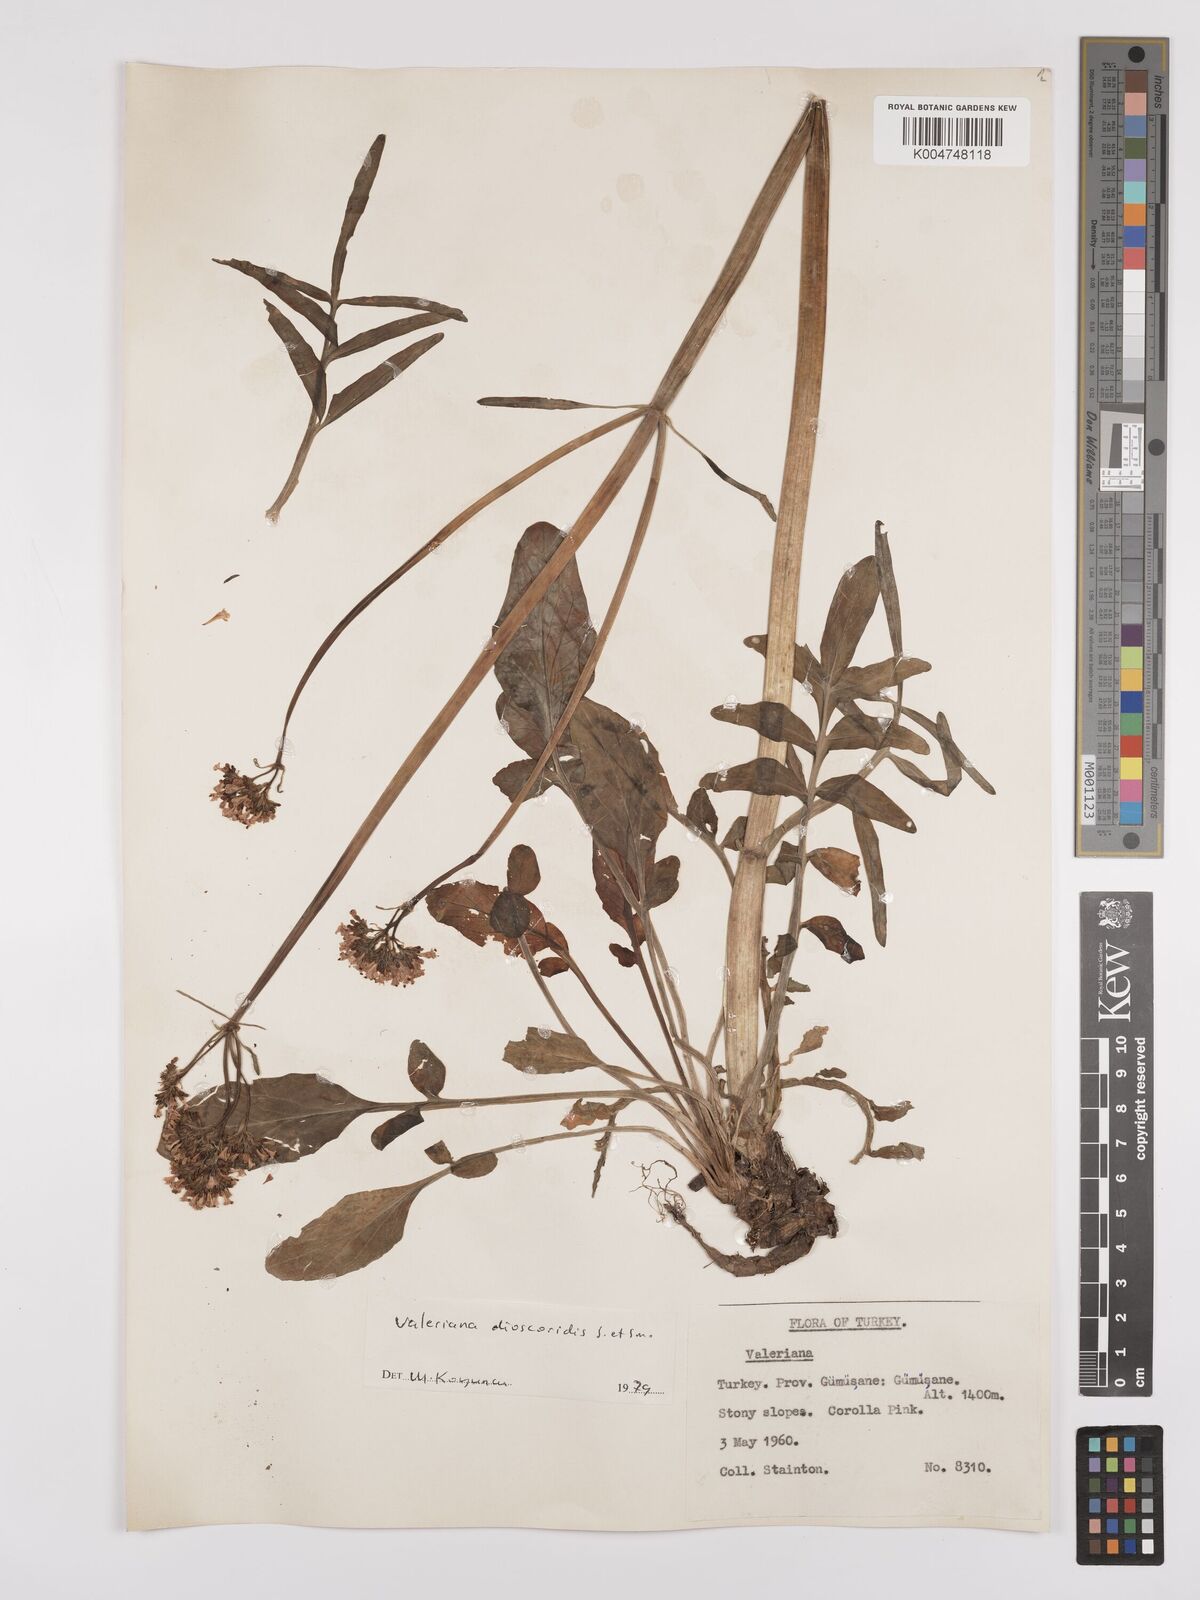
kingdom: Plantae
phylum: Tracheophyta
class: Magnoliopsida
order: Dipsacales
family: Caprifoliaceae
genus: Valeriana
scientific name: Valeriana
